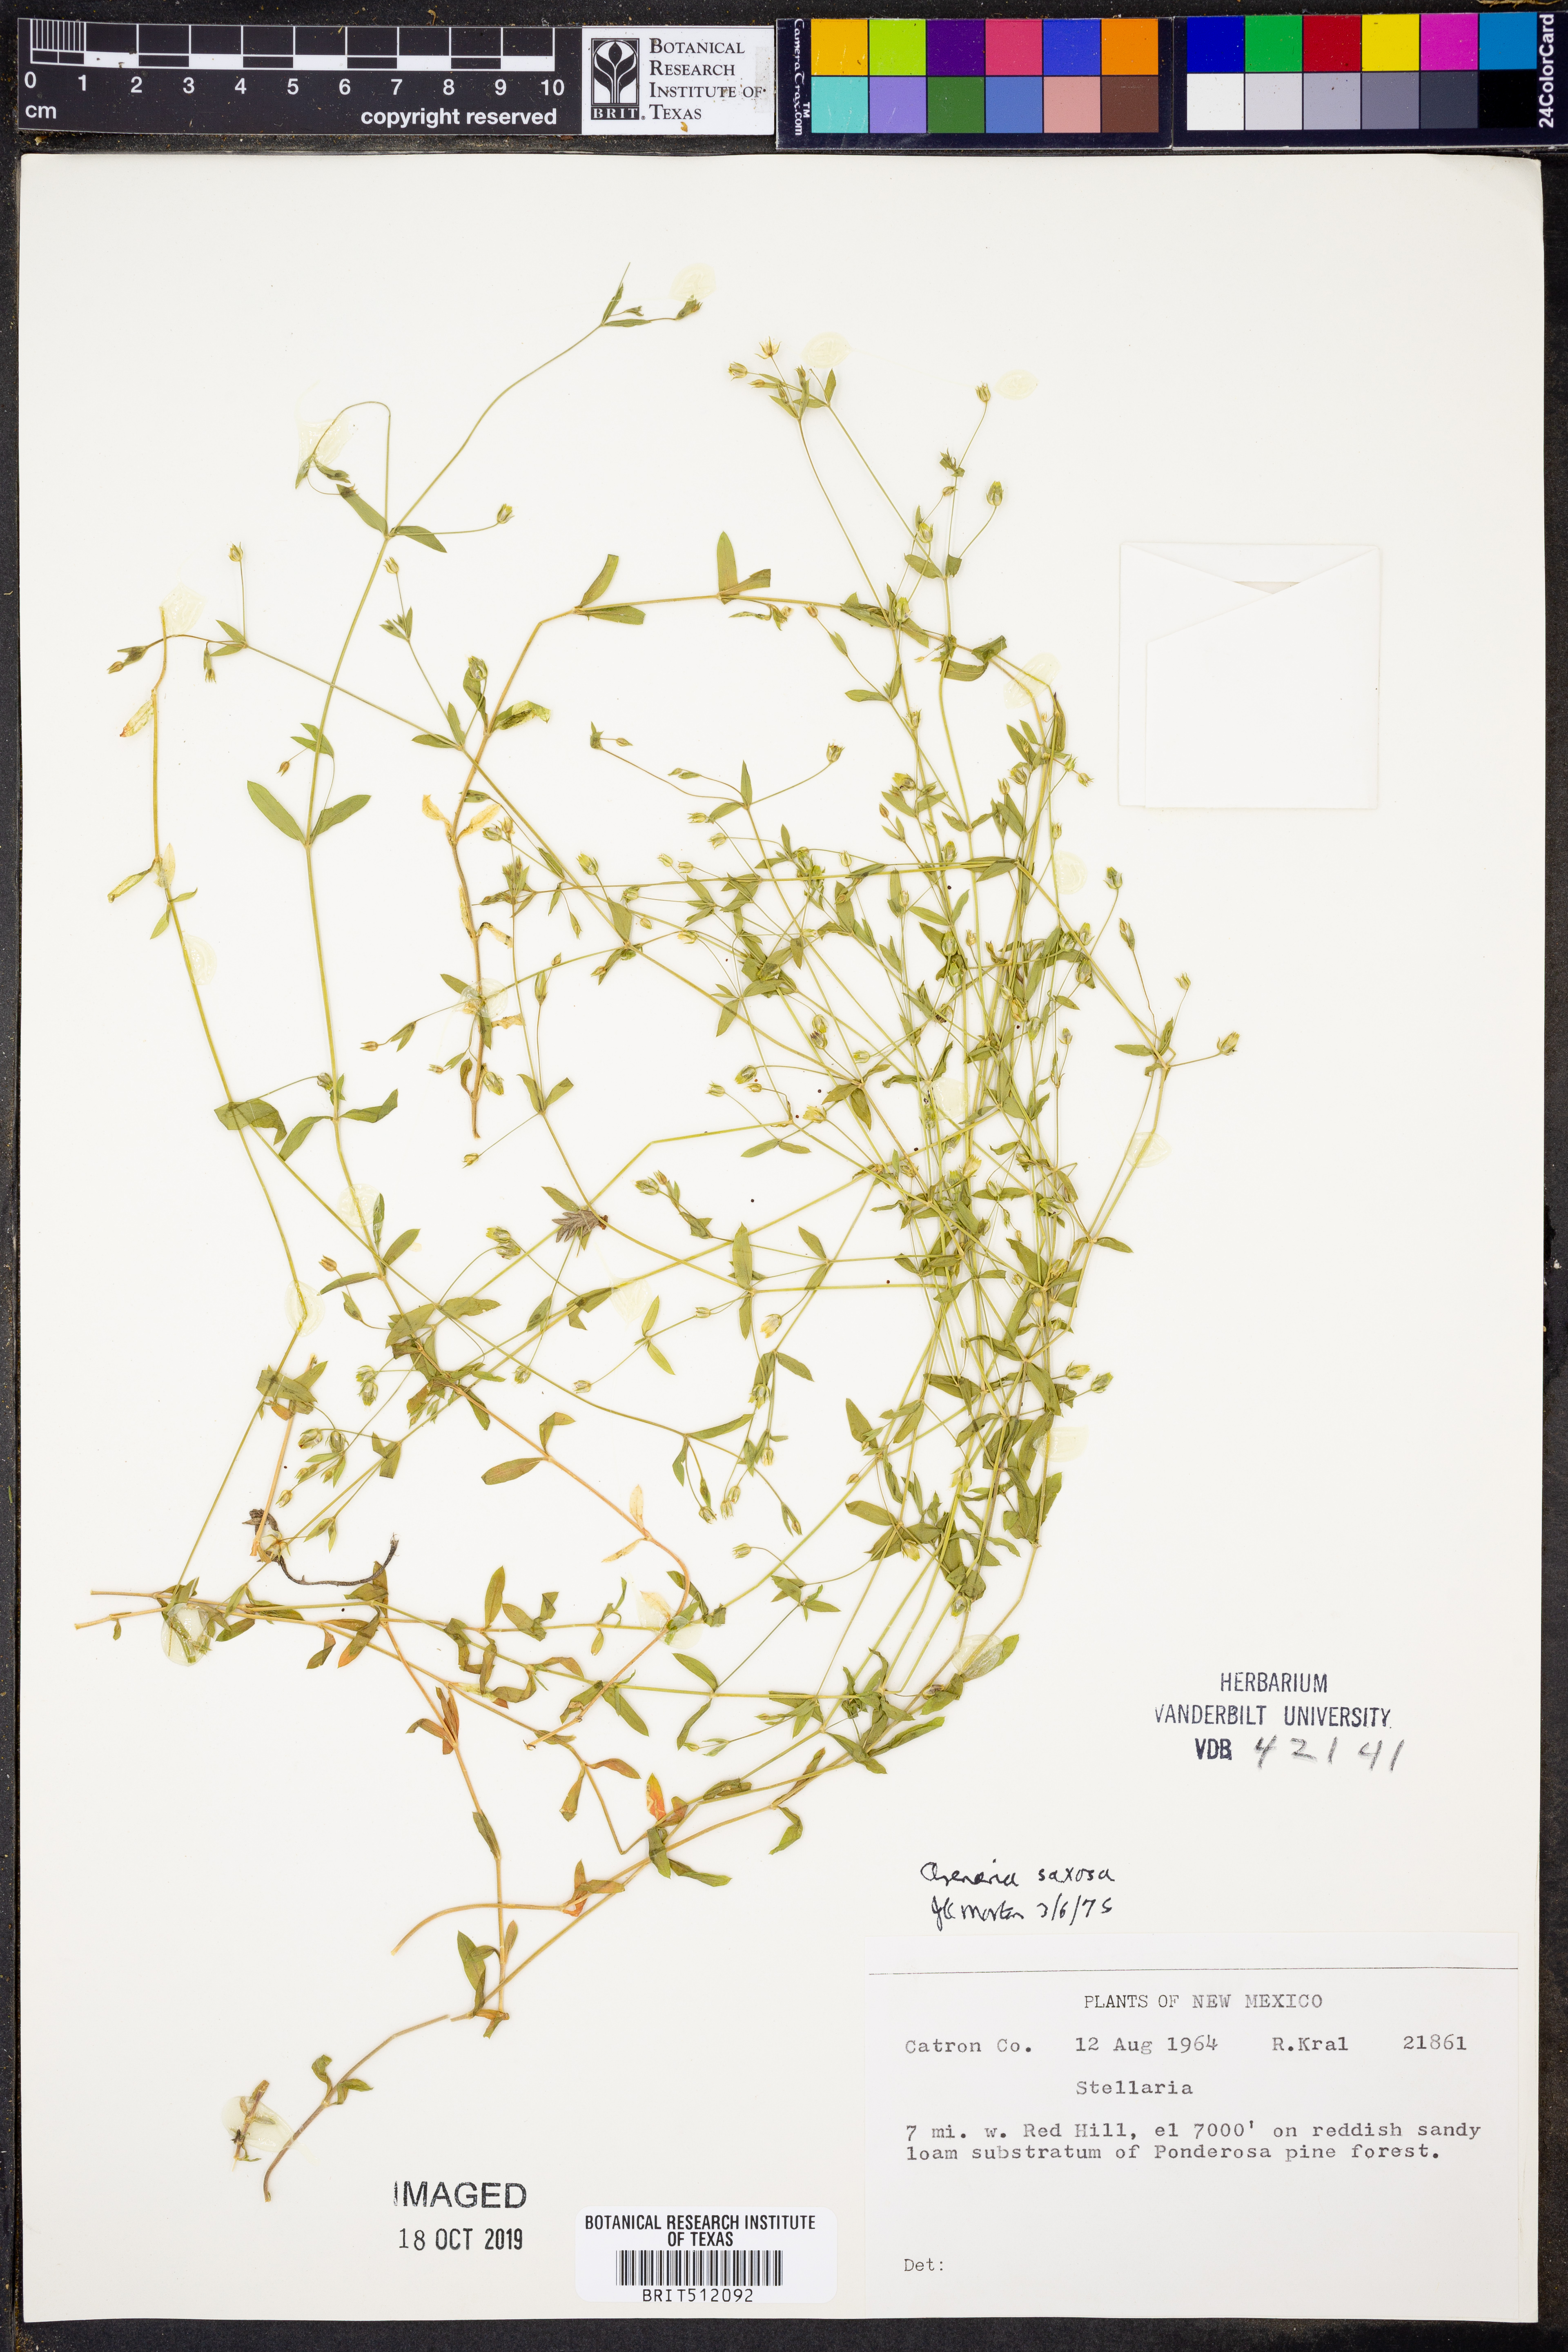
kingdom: Plantae
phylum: Tracheophyta
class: Magnoliopsida
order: Caryophyllales
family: Caryophyllaceae
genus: Arenaria
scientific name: Arenaria lanuginosa
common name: Spread sandwort
